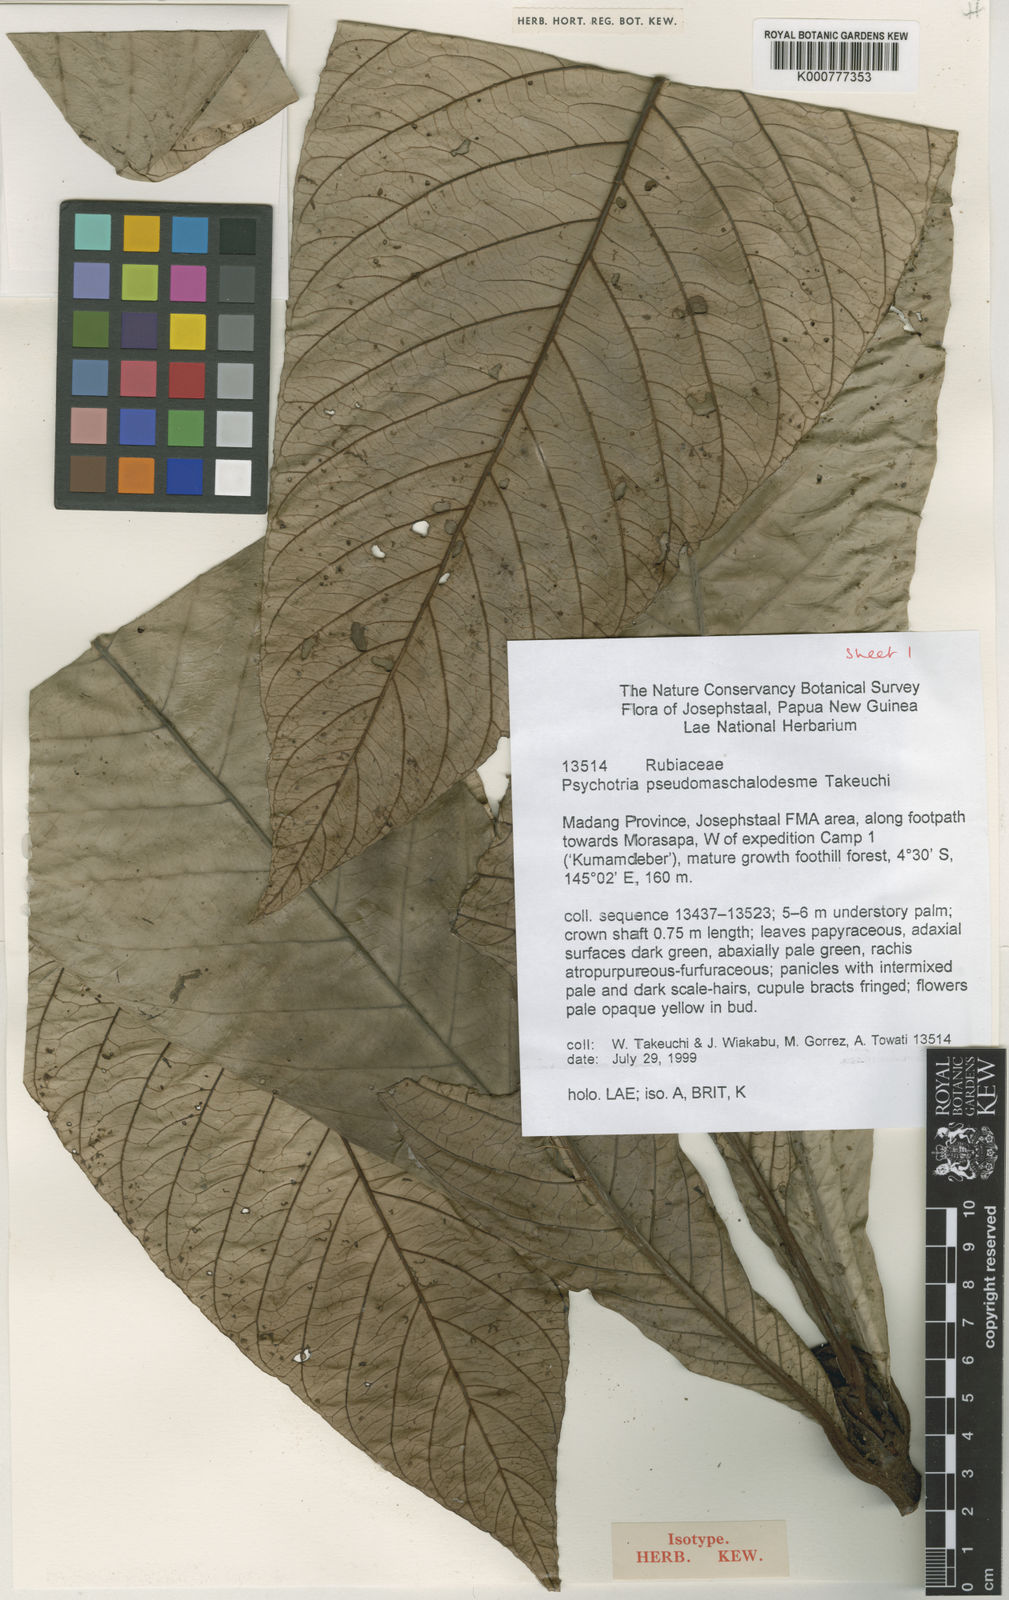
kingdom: Plantae
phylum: Tracheophyta
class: Magnoliopsida
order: Gentianales
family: Rubiaceae
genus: Psychotria
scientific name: Psychotria pseudomaschalodesme
